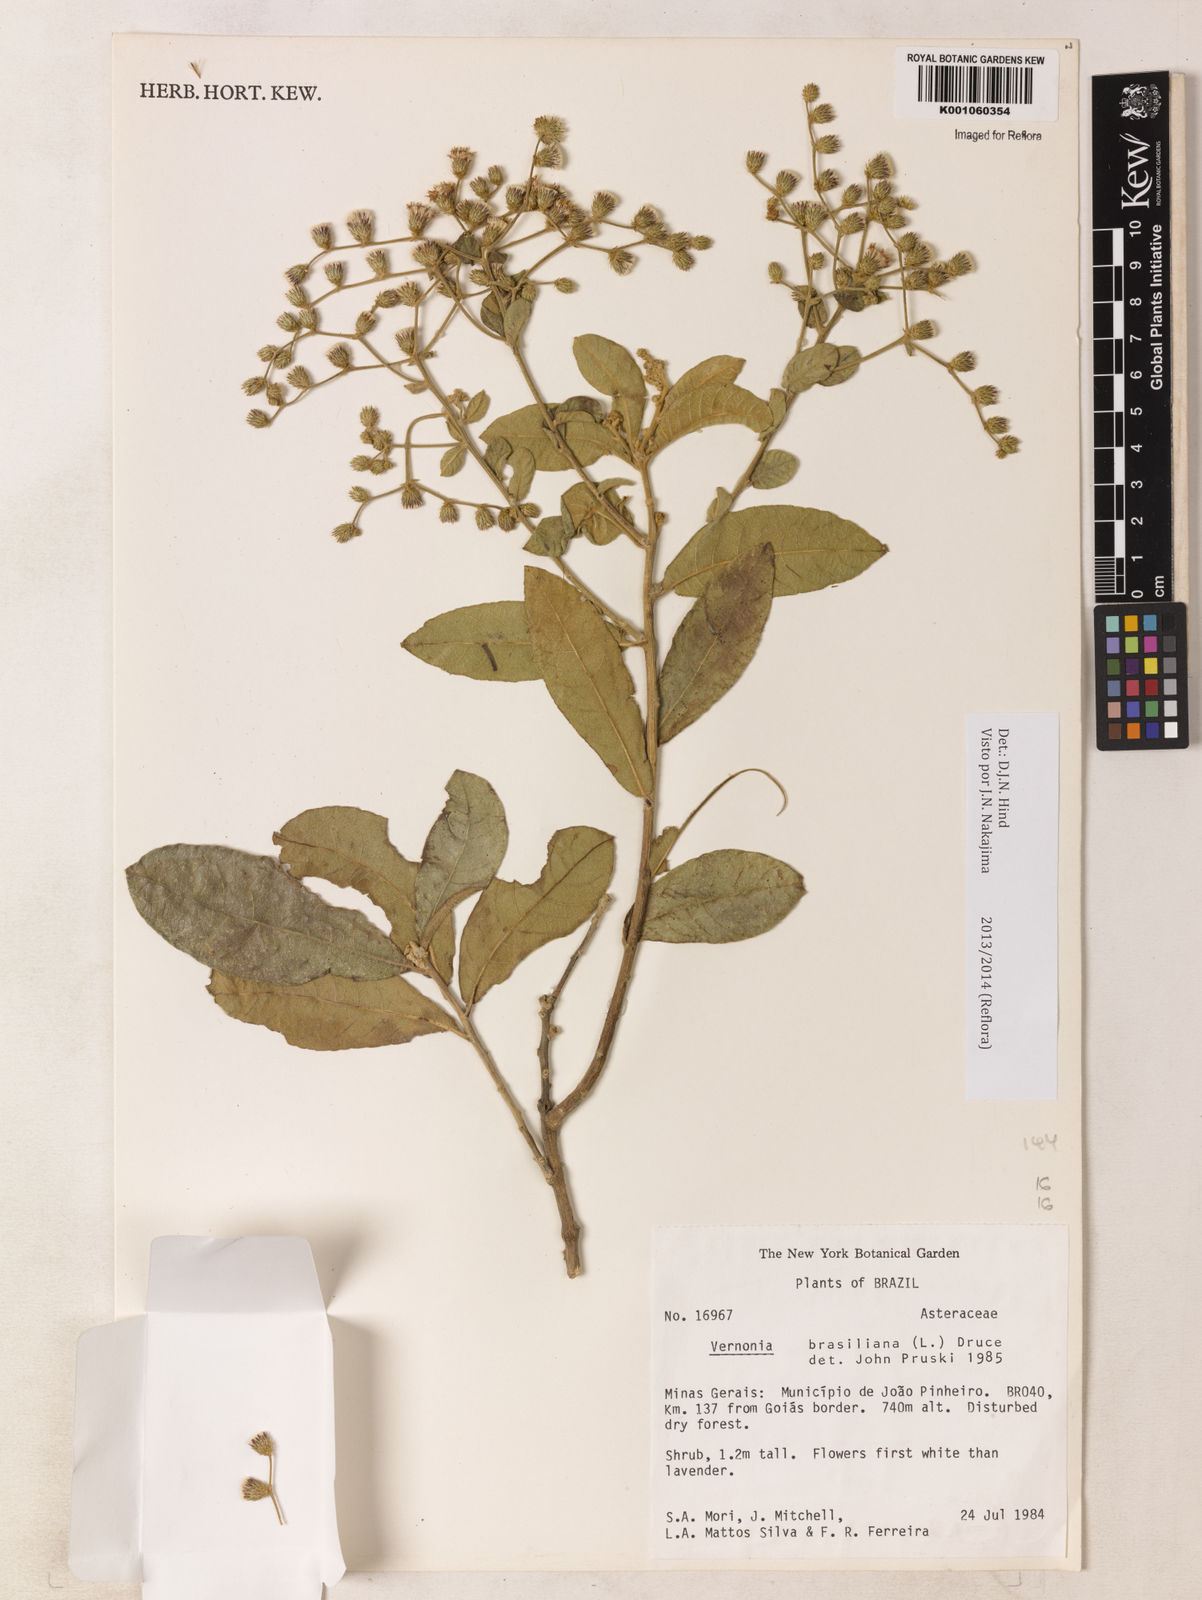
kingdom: Plantae
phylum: Tracheophyta
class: Magnoliopsida
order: Asterales
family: Asteraceae
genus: Vernonanthura
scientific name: Vernonanthura brasiliana
